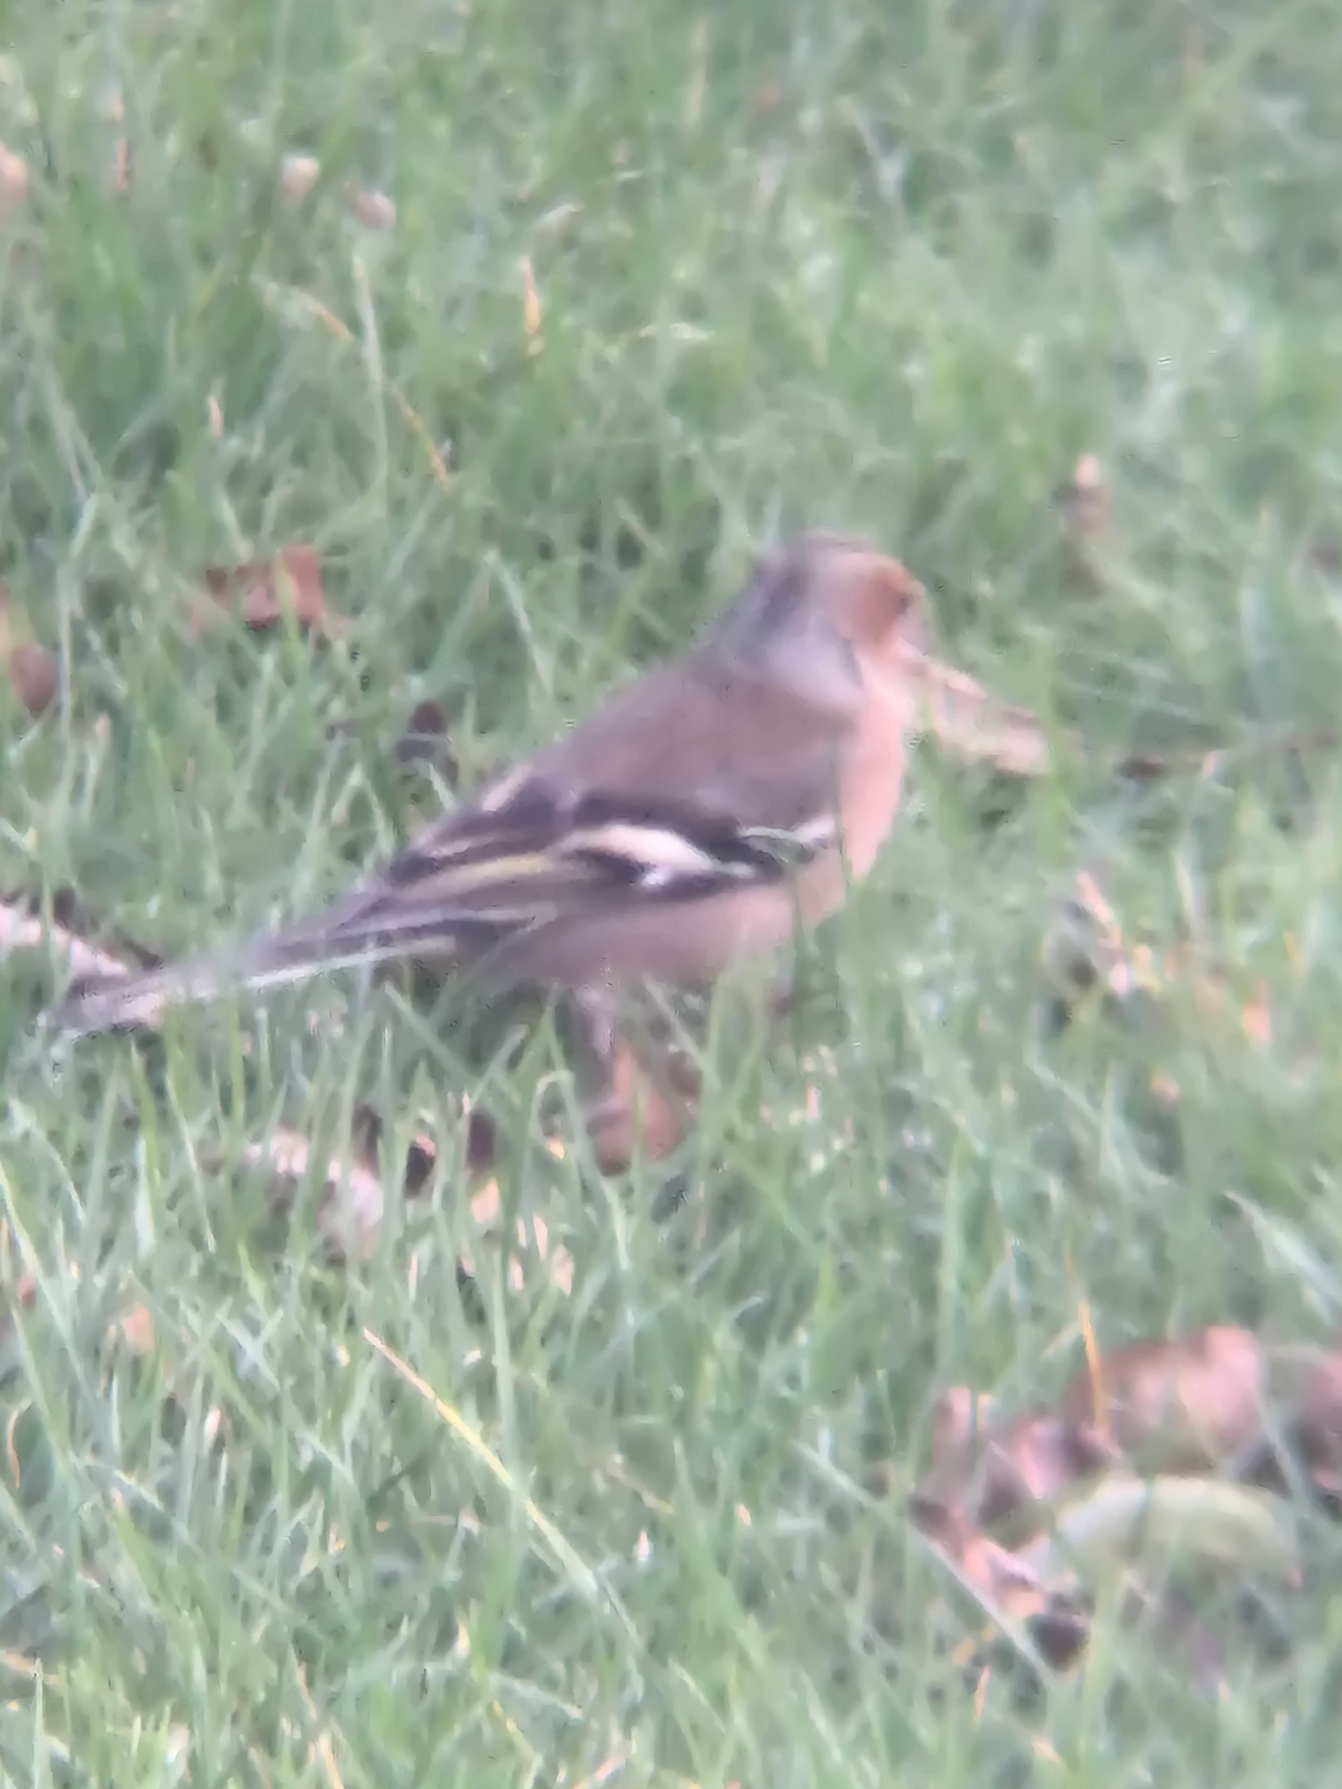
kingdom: Animalia
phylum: Chordata
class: Aves
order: Passeriformes
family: Fringillidae
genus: Fringilla
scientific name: Fringilla coelebs
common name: Bogfinke
